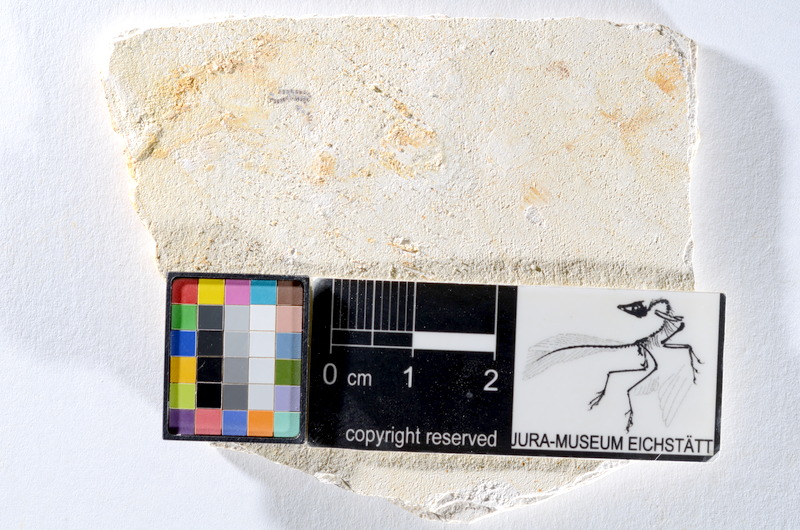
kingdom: Animalia
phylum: Chordata
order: Salmoniformes
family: Orthogonikleithridae
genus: Orthogonikleithrus
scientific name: Orthogonikleithrus hoelli
